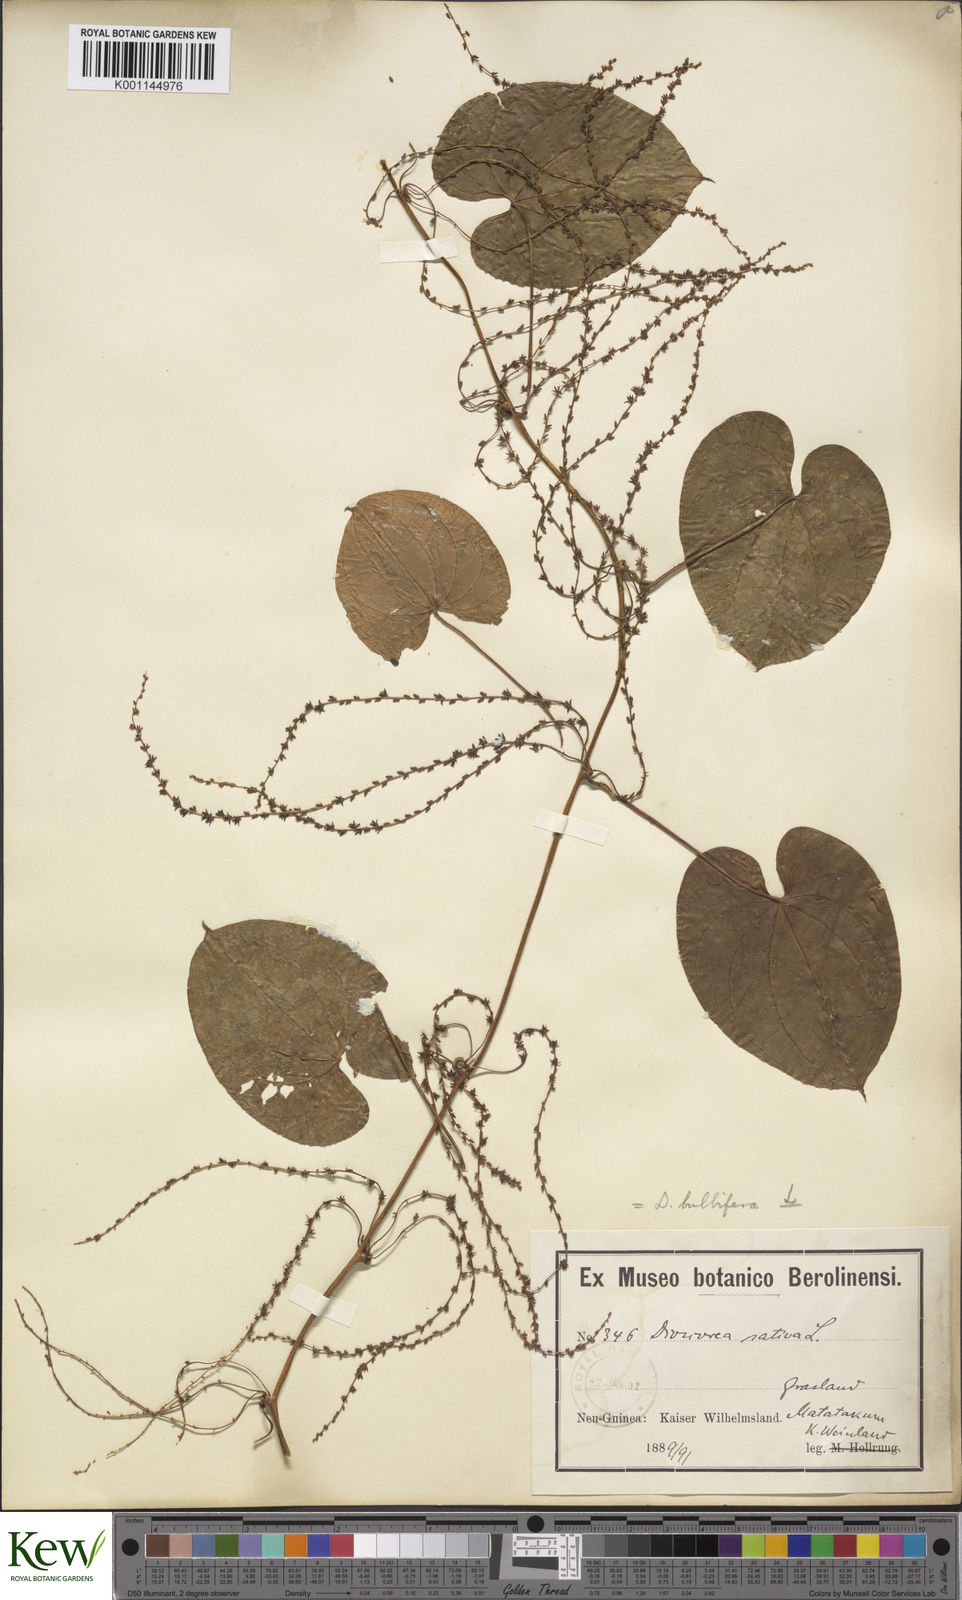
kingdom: Plantae
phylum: Tracheophyta
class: Liliopsida
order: Dioscoreales
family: Dioscoreaceae
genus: Dioscorea
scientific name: Dioscorea bulbifera
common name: Air yam
